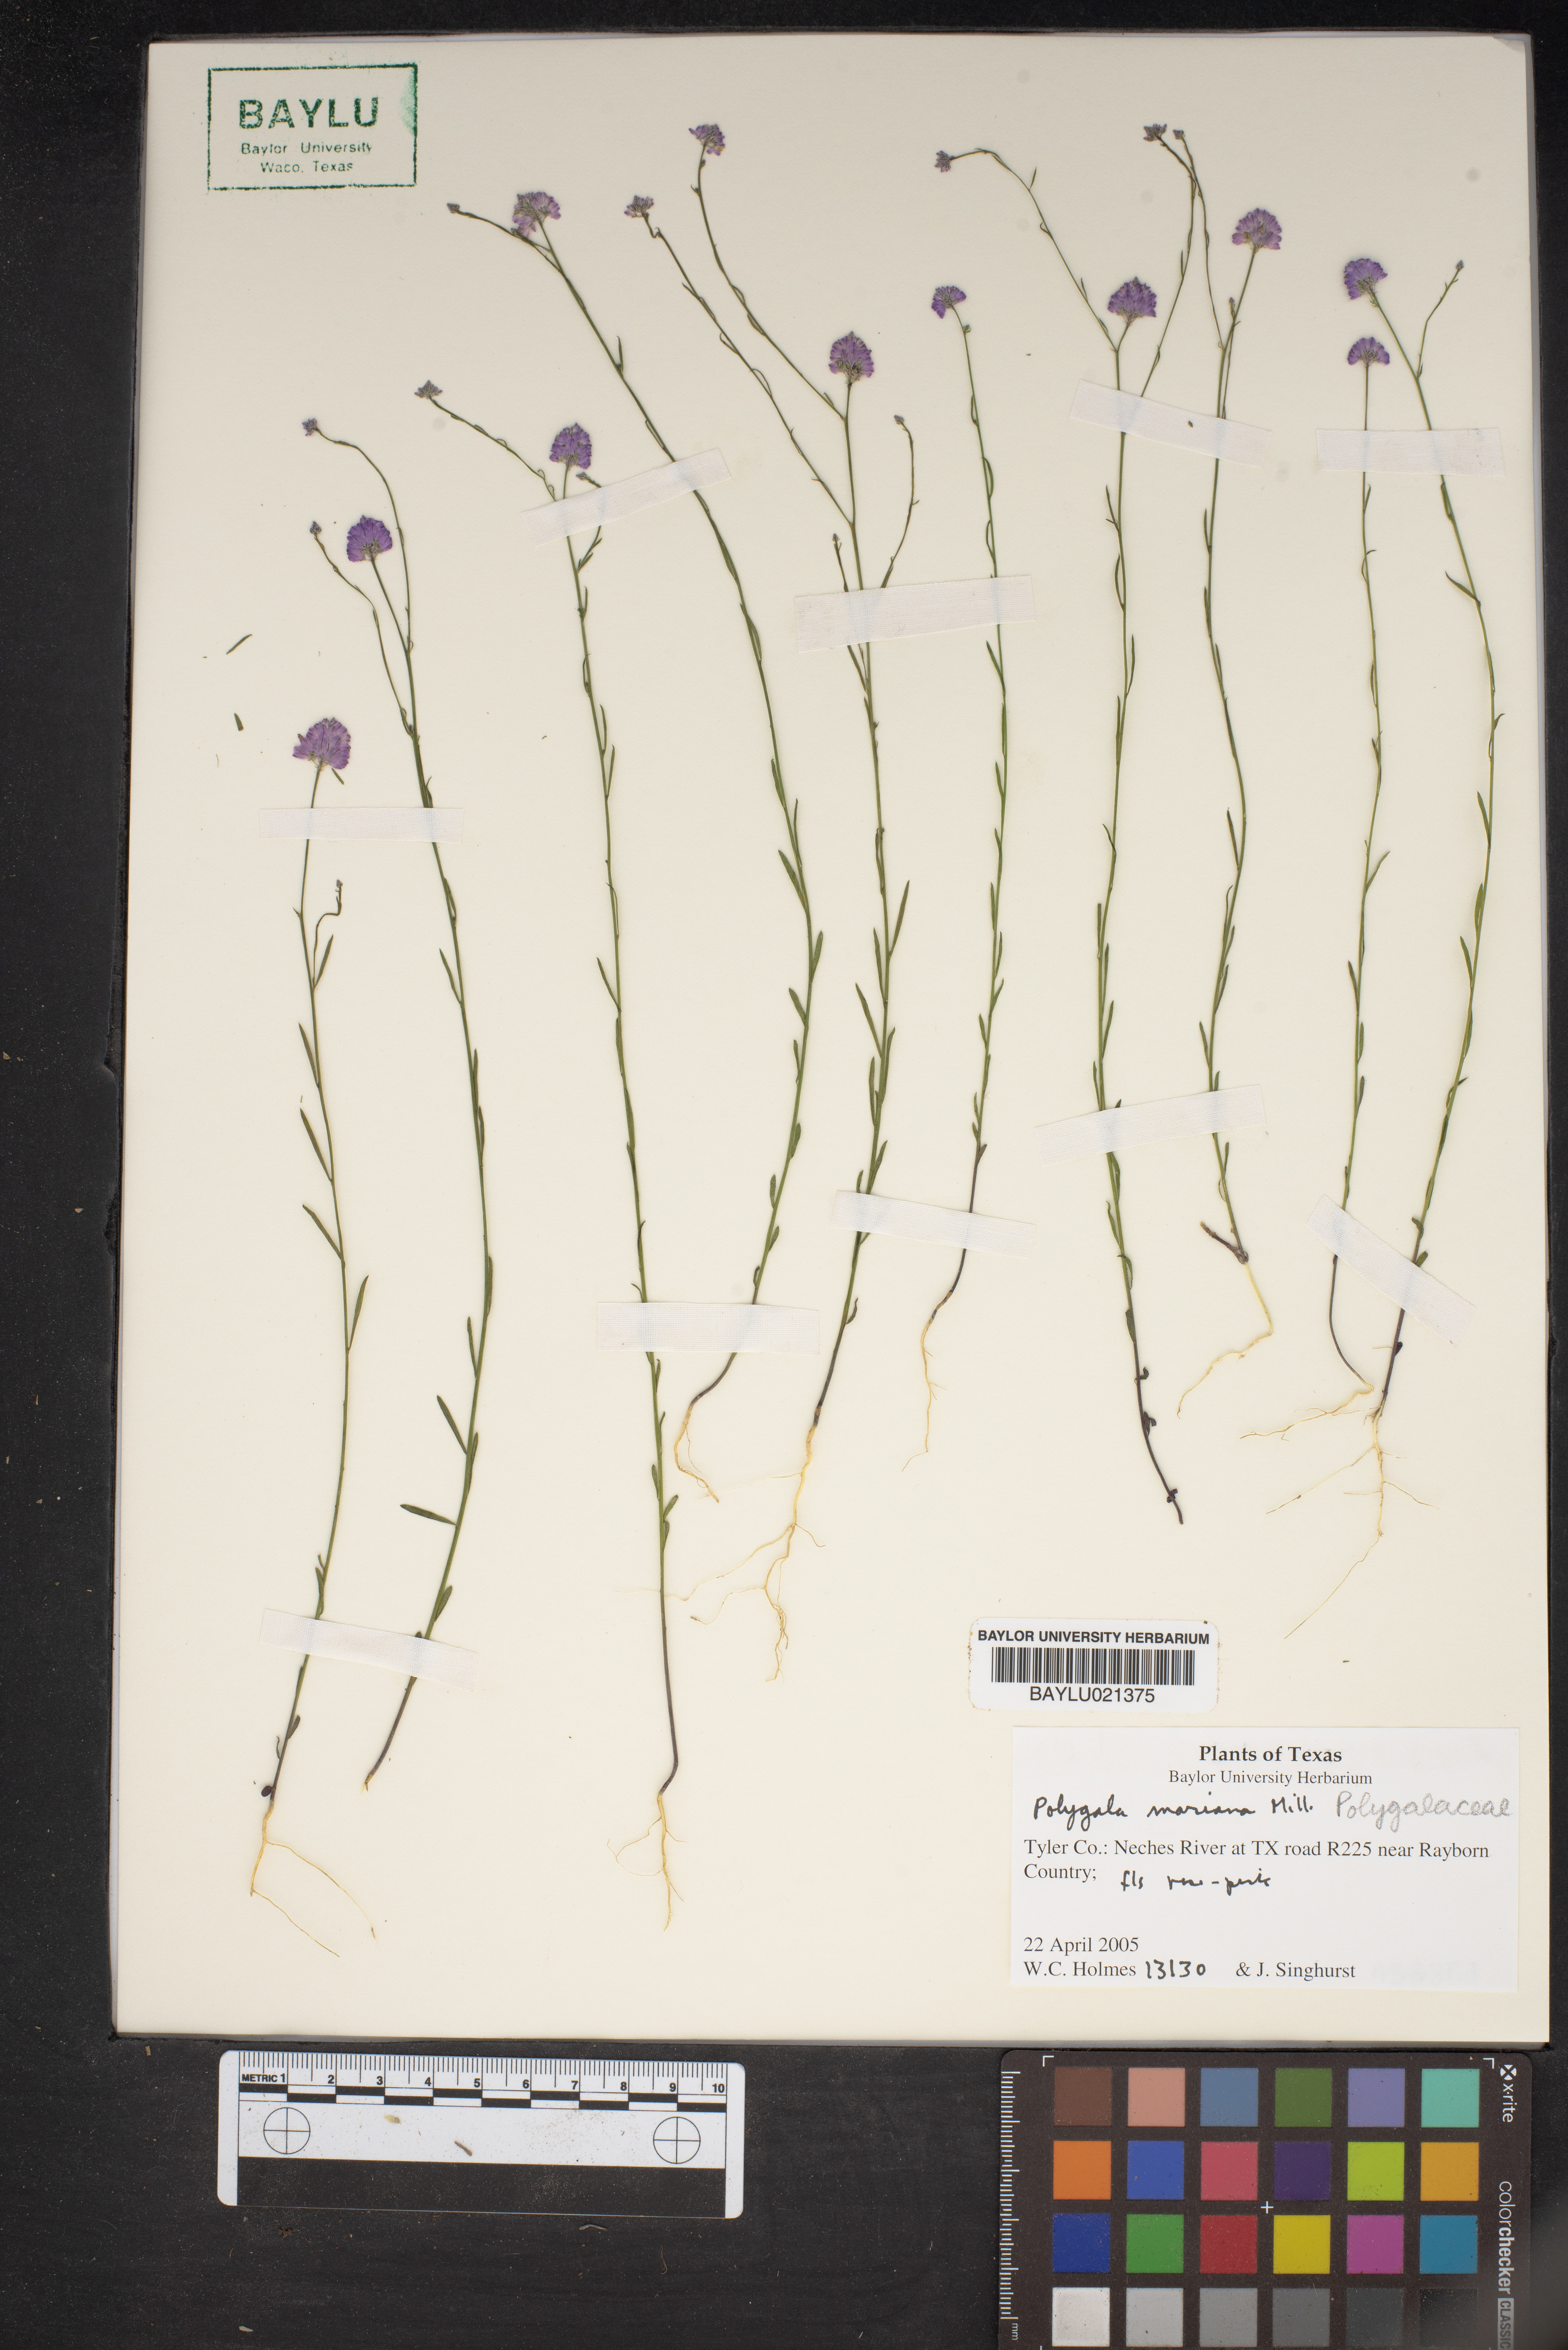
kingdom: Plantae
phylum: Tracheophyta
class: Magnoliopsida
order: Fabales
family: Polygalaceae
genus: Polygala
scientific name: Polygala mariana
